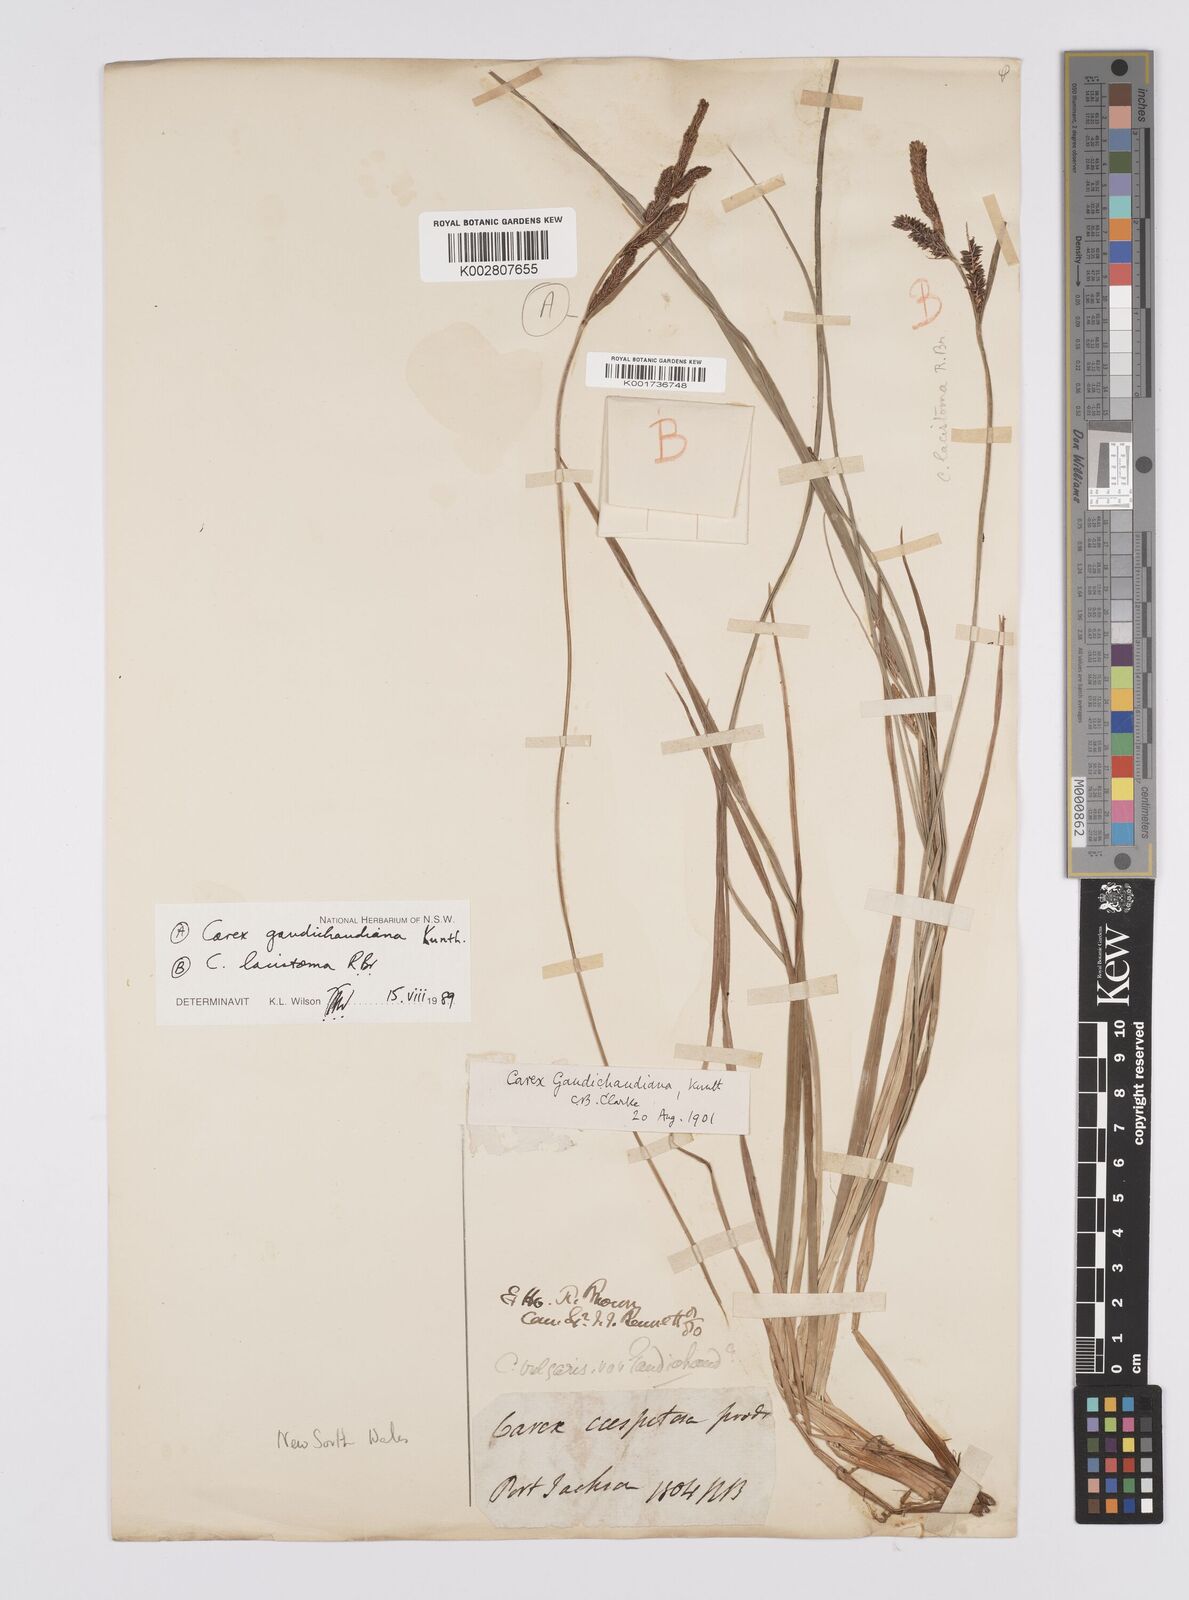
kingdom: Plantae
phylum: Tracheophyta
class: Liliopsida
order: Poales
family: Cyperaceae
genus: Carex
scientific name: Carex lacistoma
